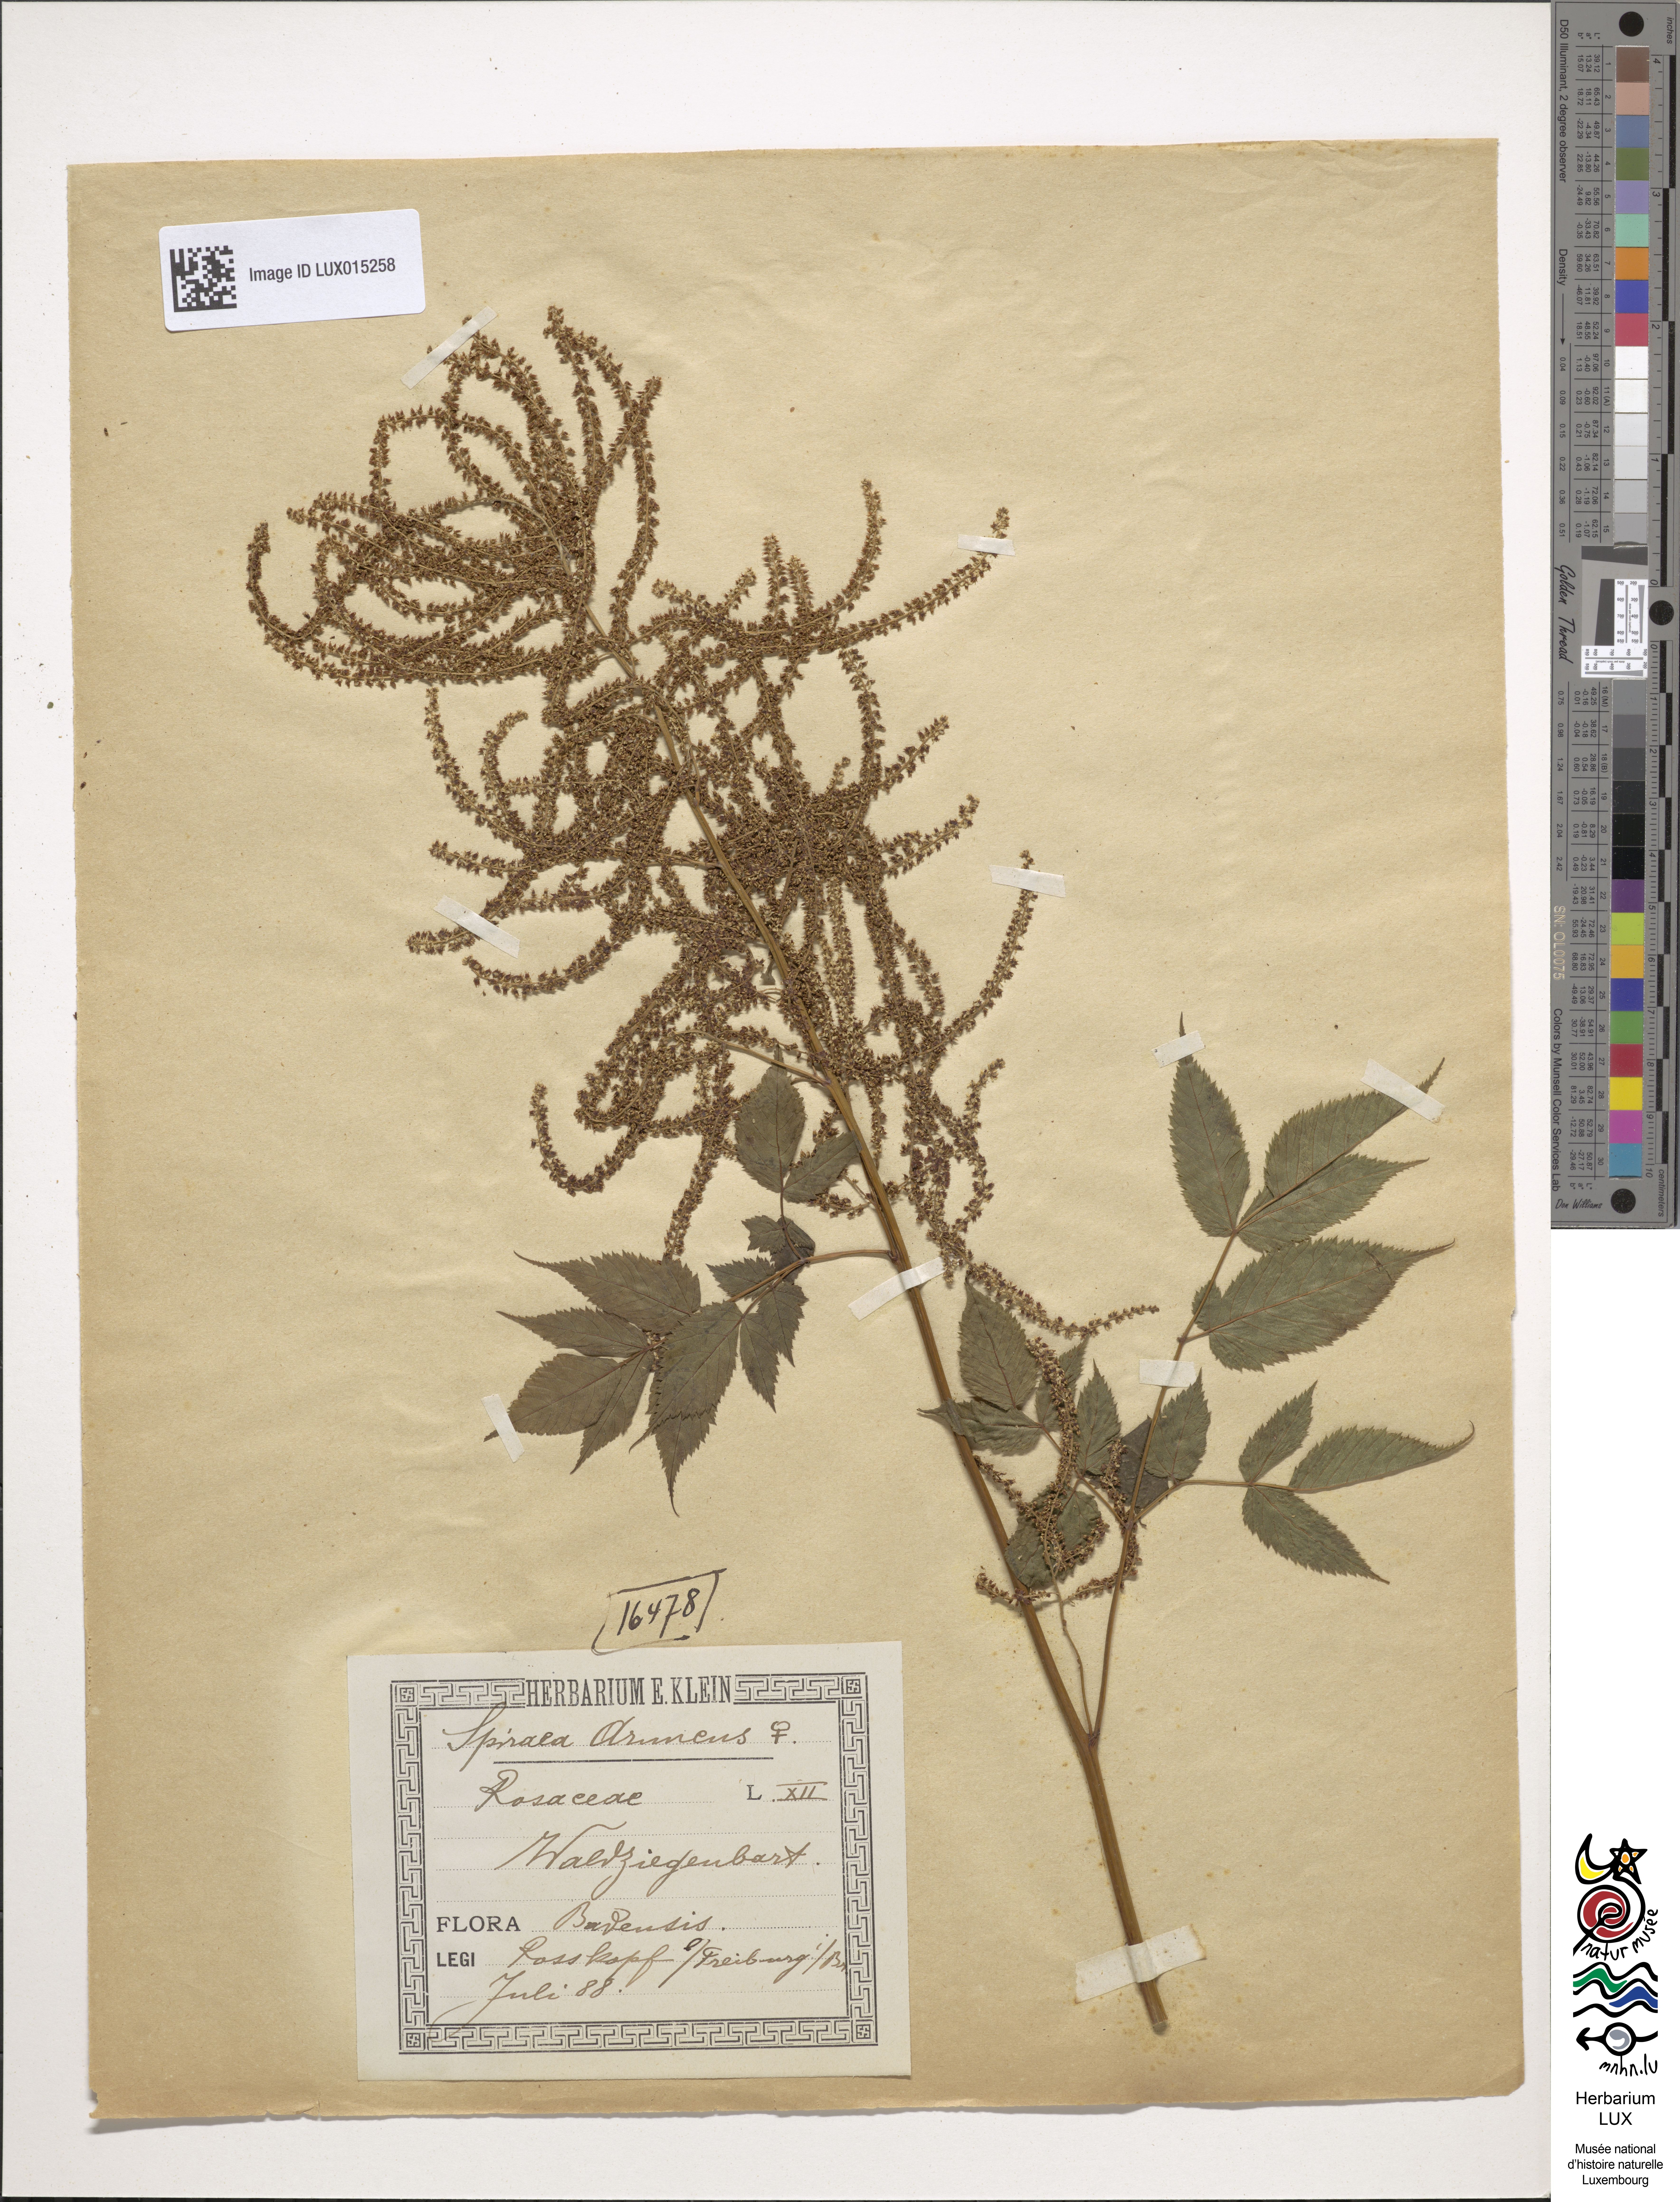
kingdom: Plantae
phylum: Tracheophyta
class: Magnoliopsida
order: Rosales
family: Rosaceae
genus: Aruncus
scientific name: Aruncus dioicus
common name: Buck's-beard
